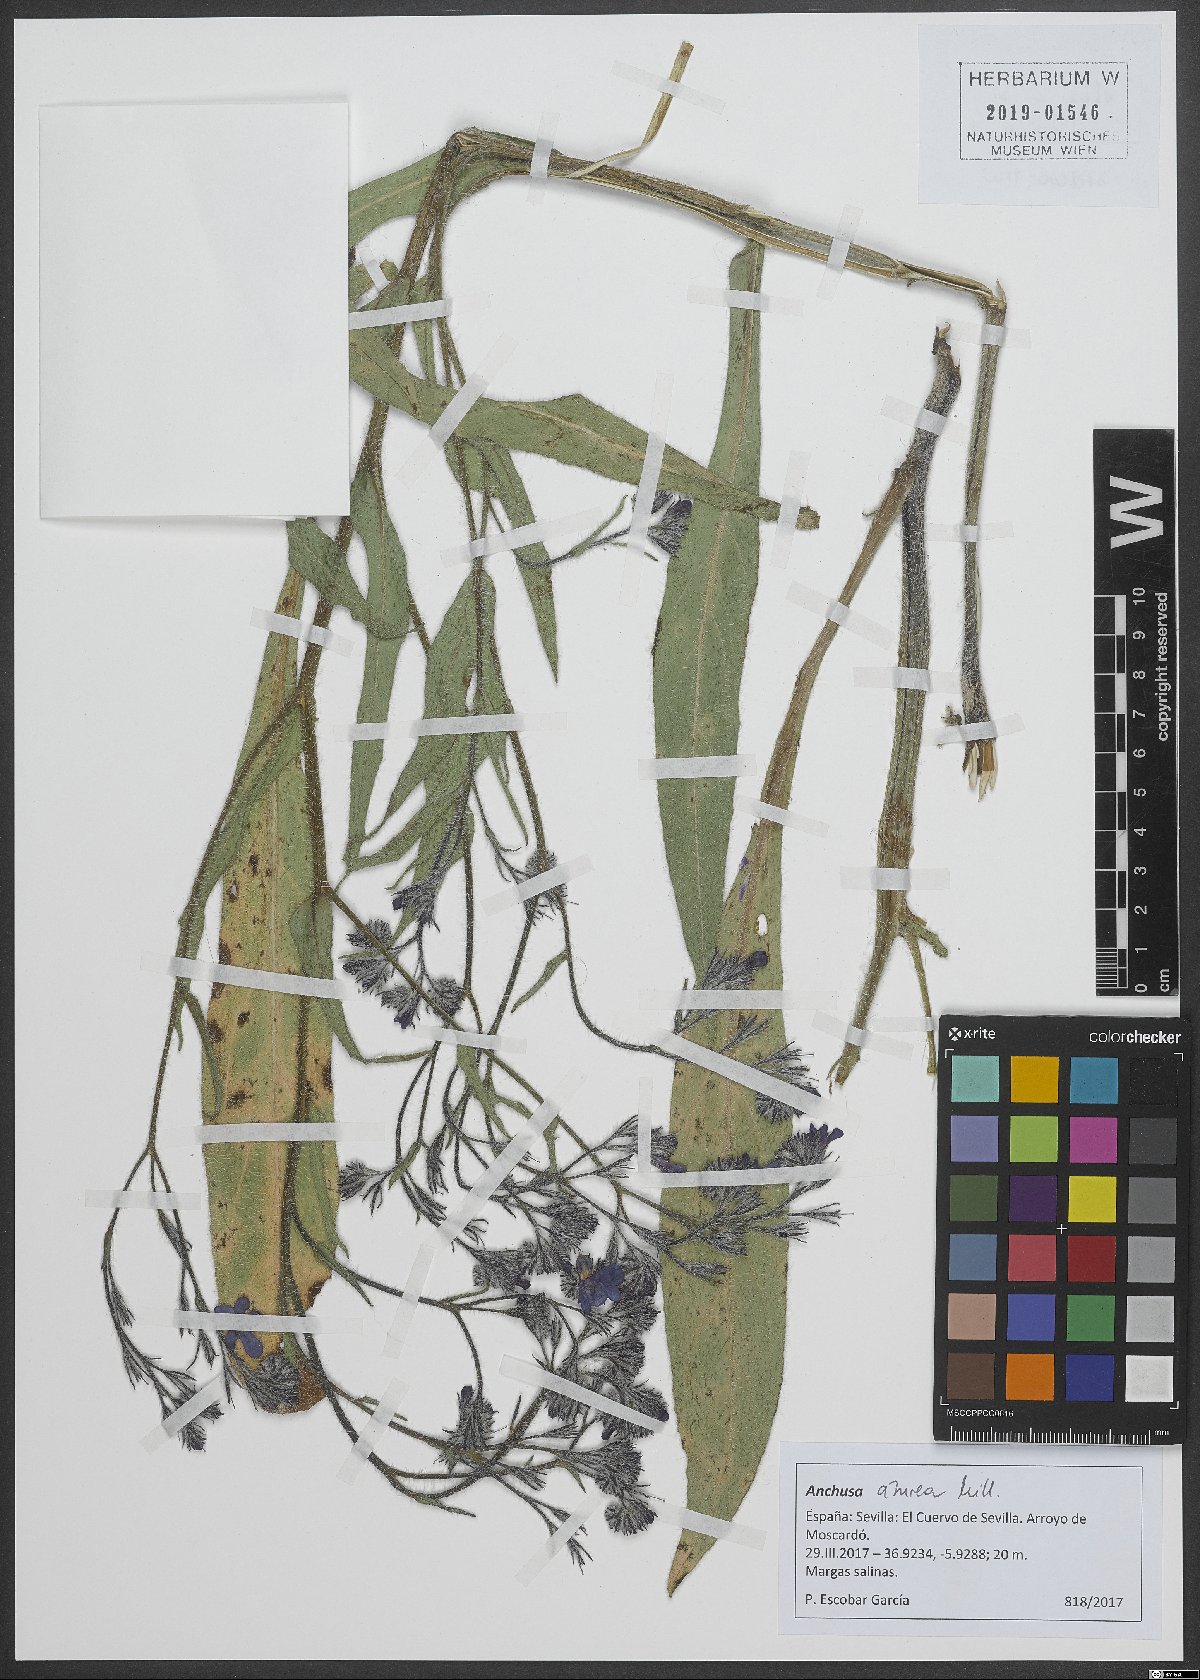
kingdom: Plantae
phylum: Tracheophyta
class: Magnoliopsida
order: Boraginales
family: Boraginaceae
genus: Anchusa
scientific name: Anchusa azurea
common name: Garden anchusa
